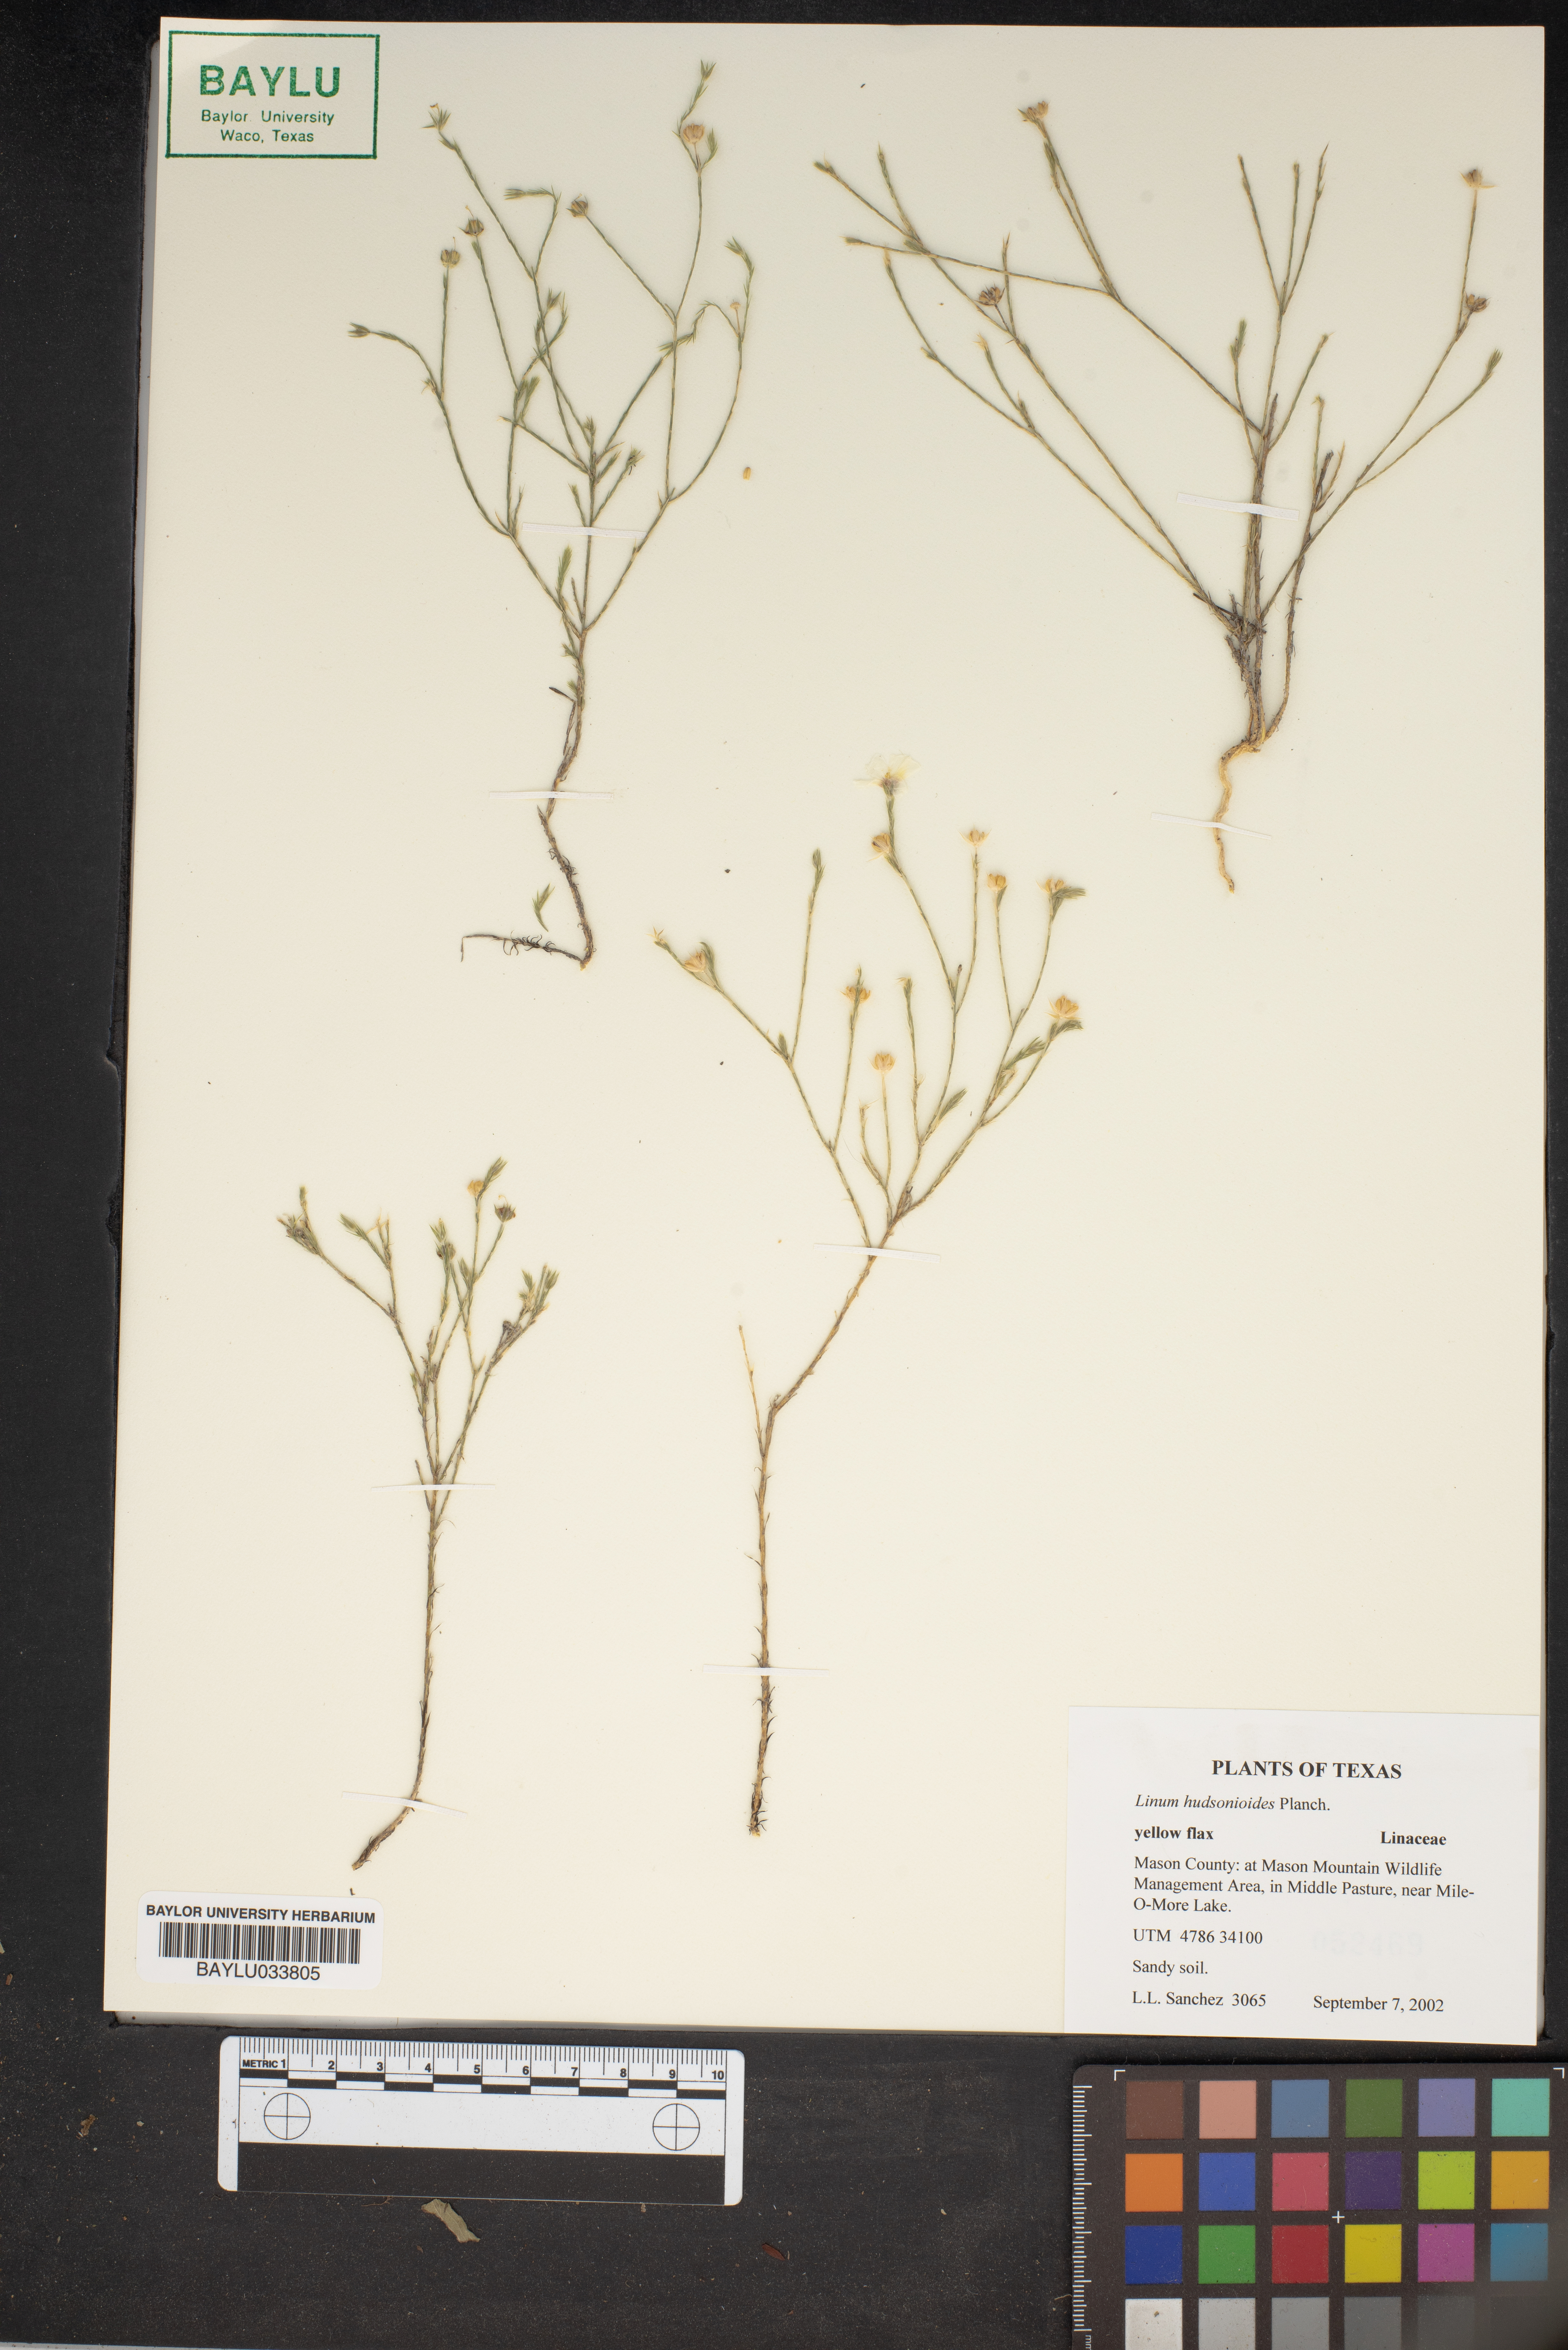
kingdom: Plantae
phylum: Tracheophyta
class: Magnoliopsida
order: Malpighiales
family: Linaceae
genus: Linum
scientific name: Linum hudsonioides
